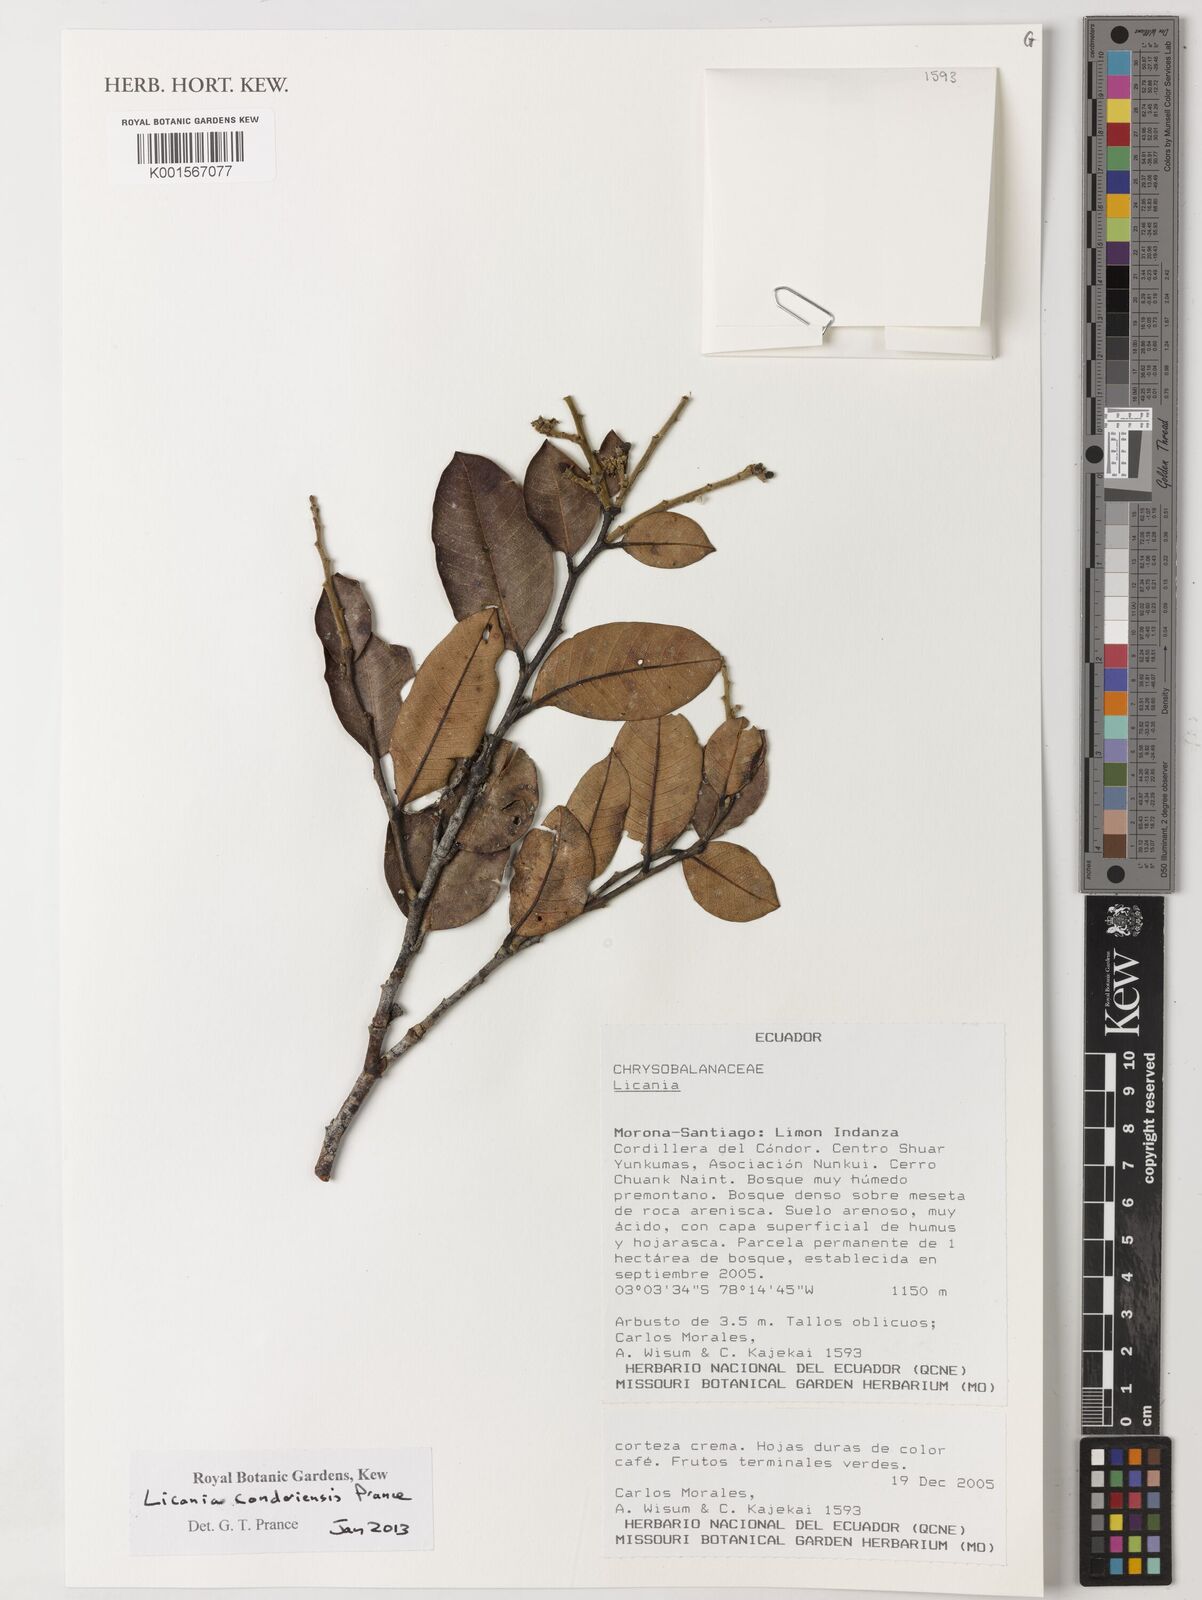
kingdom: Plantae
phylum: Tracheophyta
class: Magnoliopsida
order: Malpighiales
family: Chrysobalanaceae
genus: Licania
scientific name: Licania condoriensis
